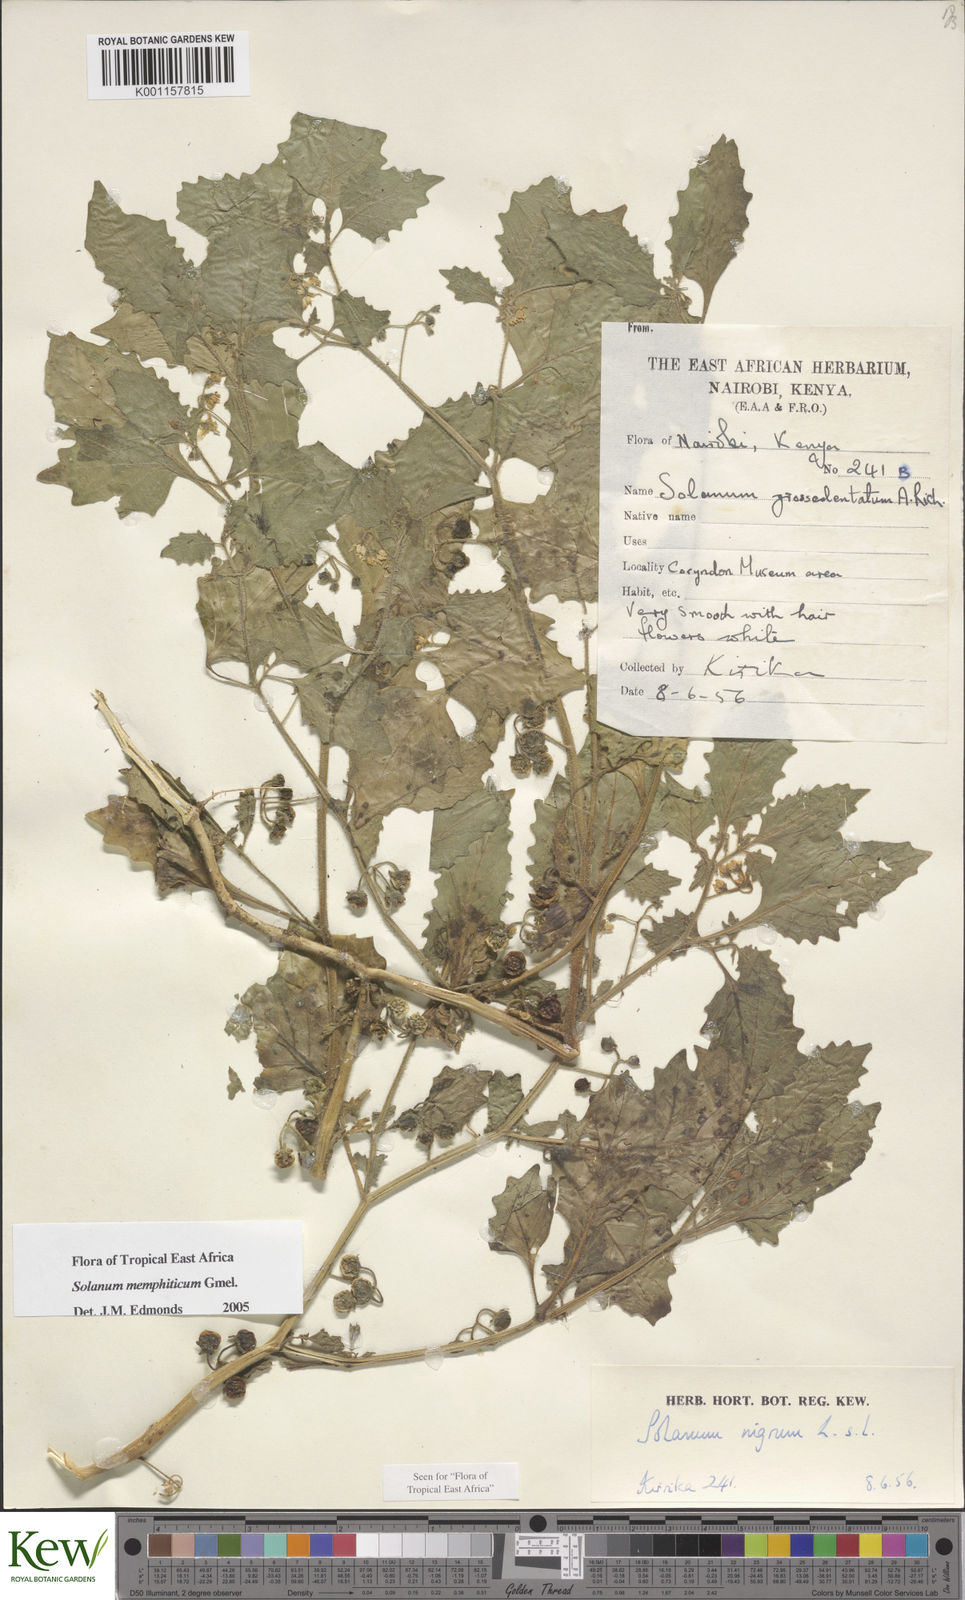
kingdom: Plantae
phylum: Tracheophyta
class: Magnoliopsida
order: Solanales
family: Solanaceae
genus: Solanum
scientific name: Solanum memphiticum
